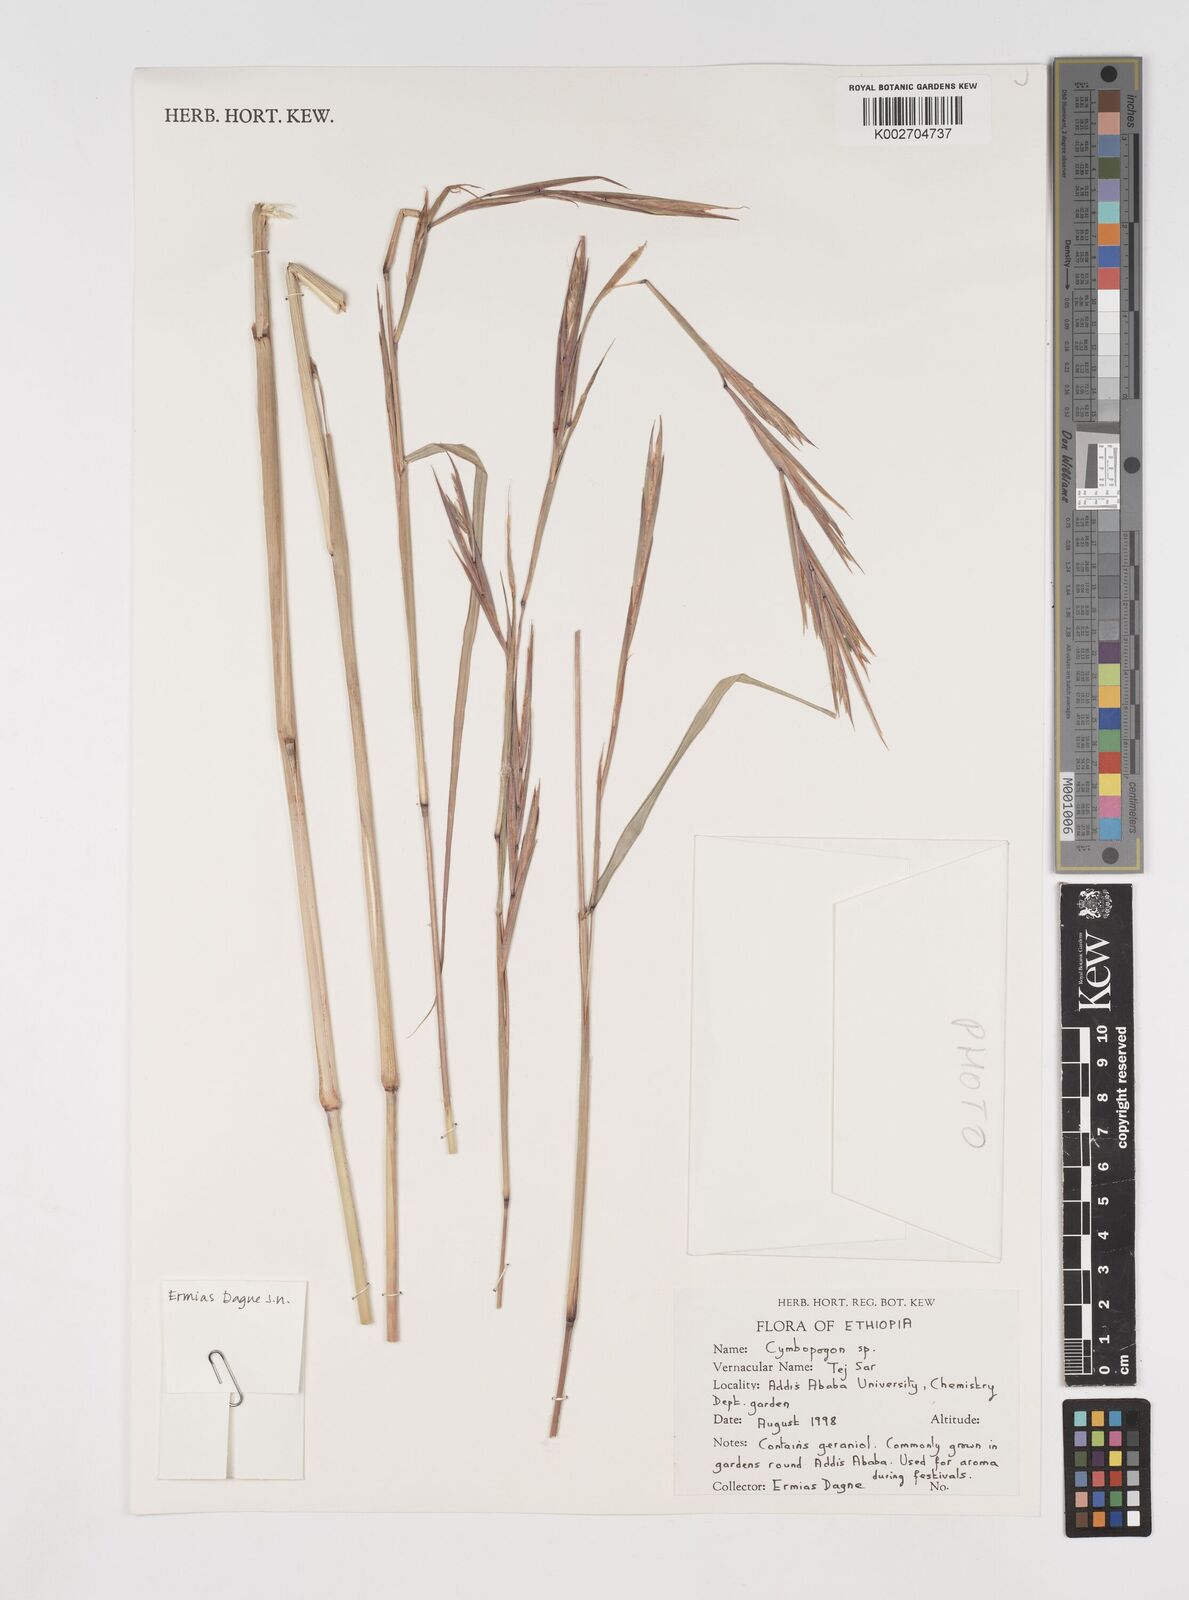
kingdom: Plantae
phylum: Tracheophyta
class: Liliopsida
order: Poales
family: Poaceae
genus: Cymbopogon
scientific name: Cymbopogon
